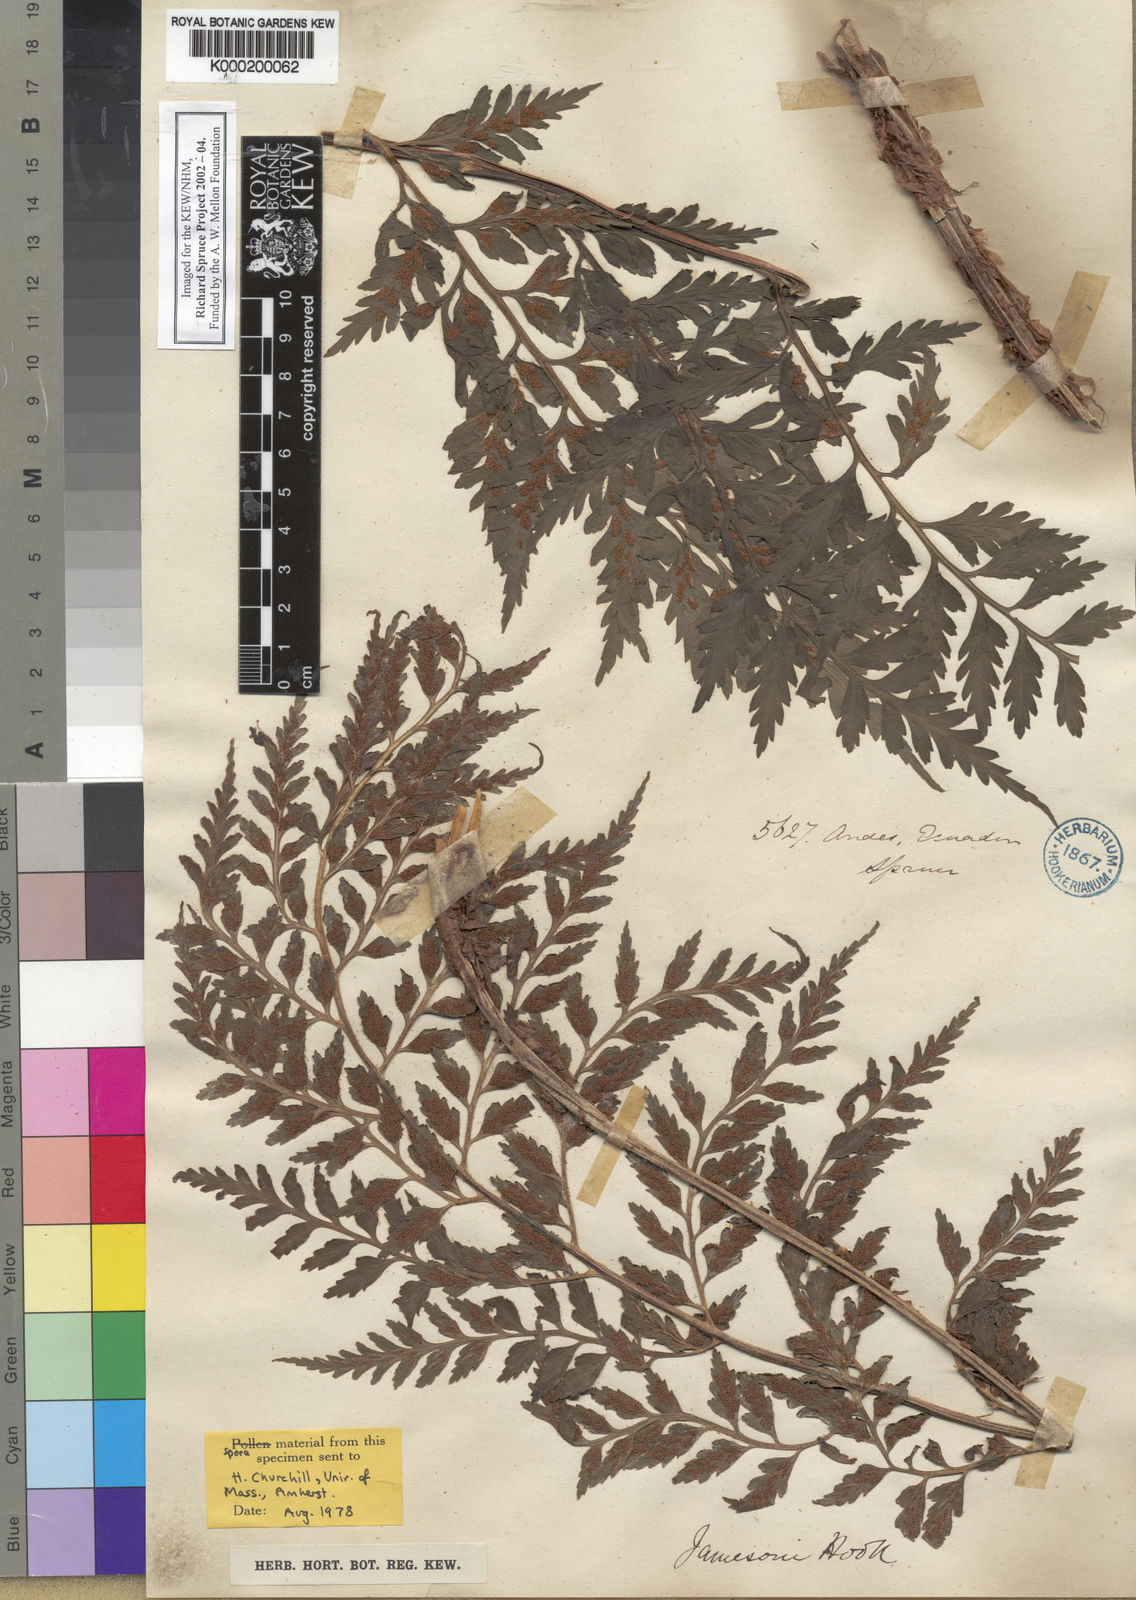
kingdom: Plantae
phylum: Tracheophyta
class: Polypodiopsida
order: Polypodiales
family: Aspleniaceae
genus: Asplenium
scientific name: Asplenium squamosum
